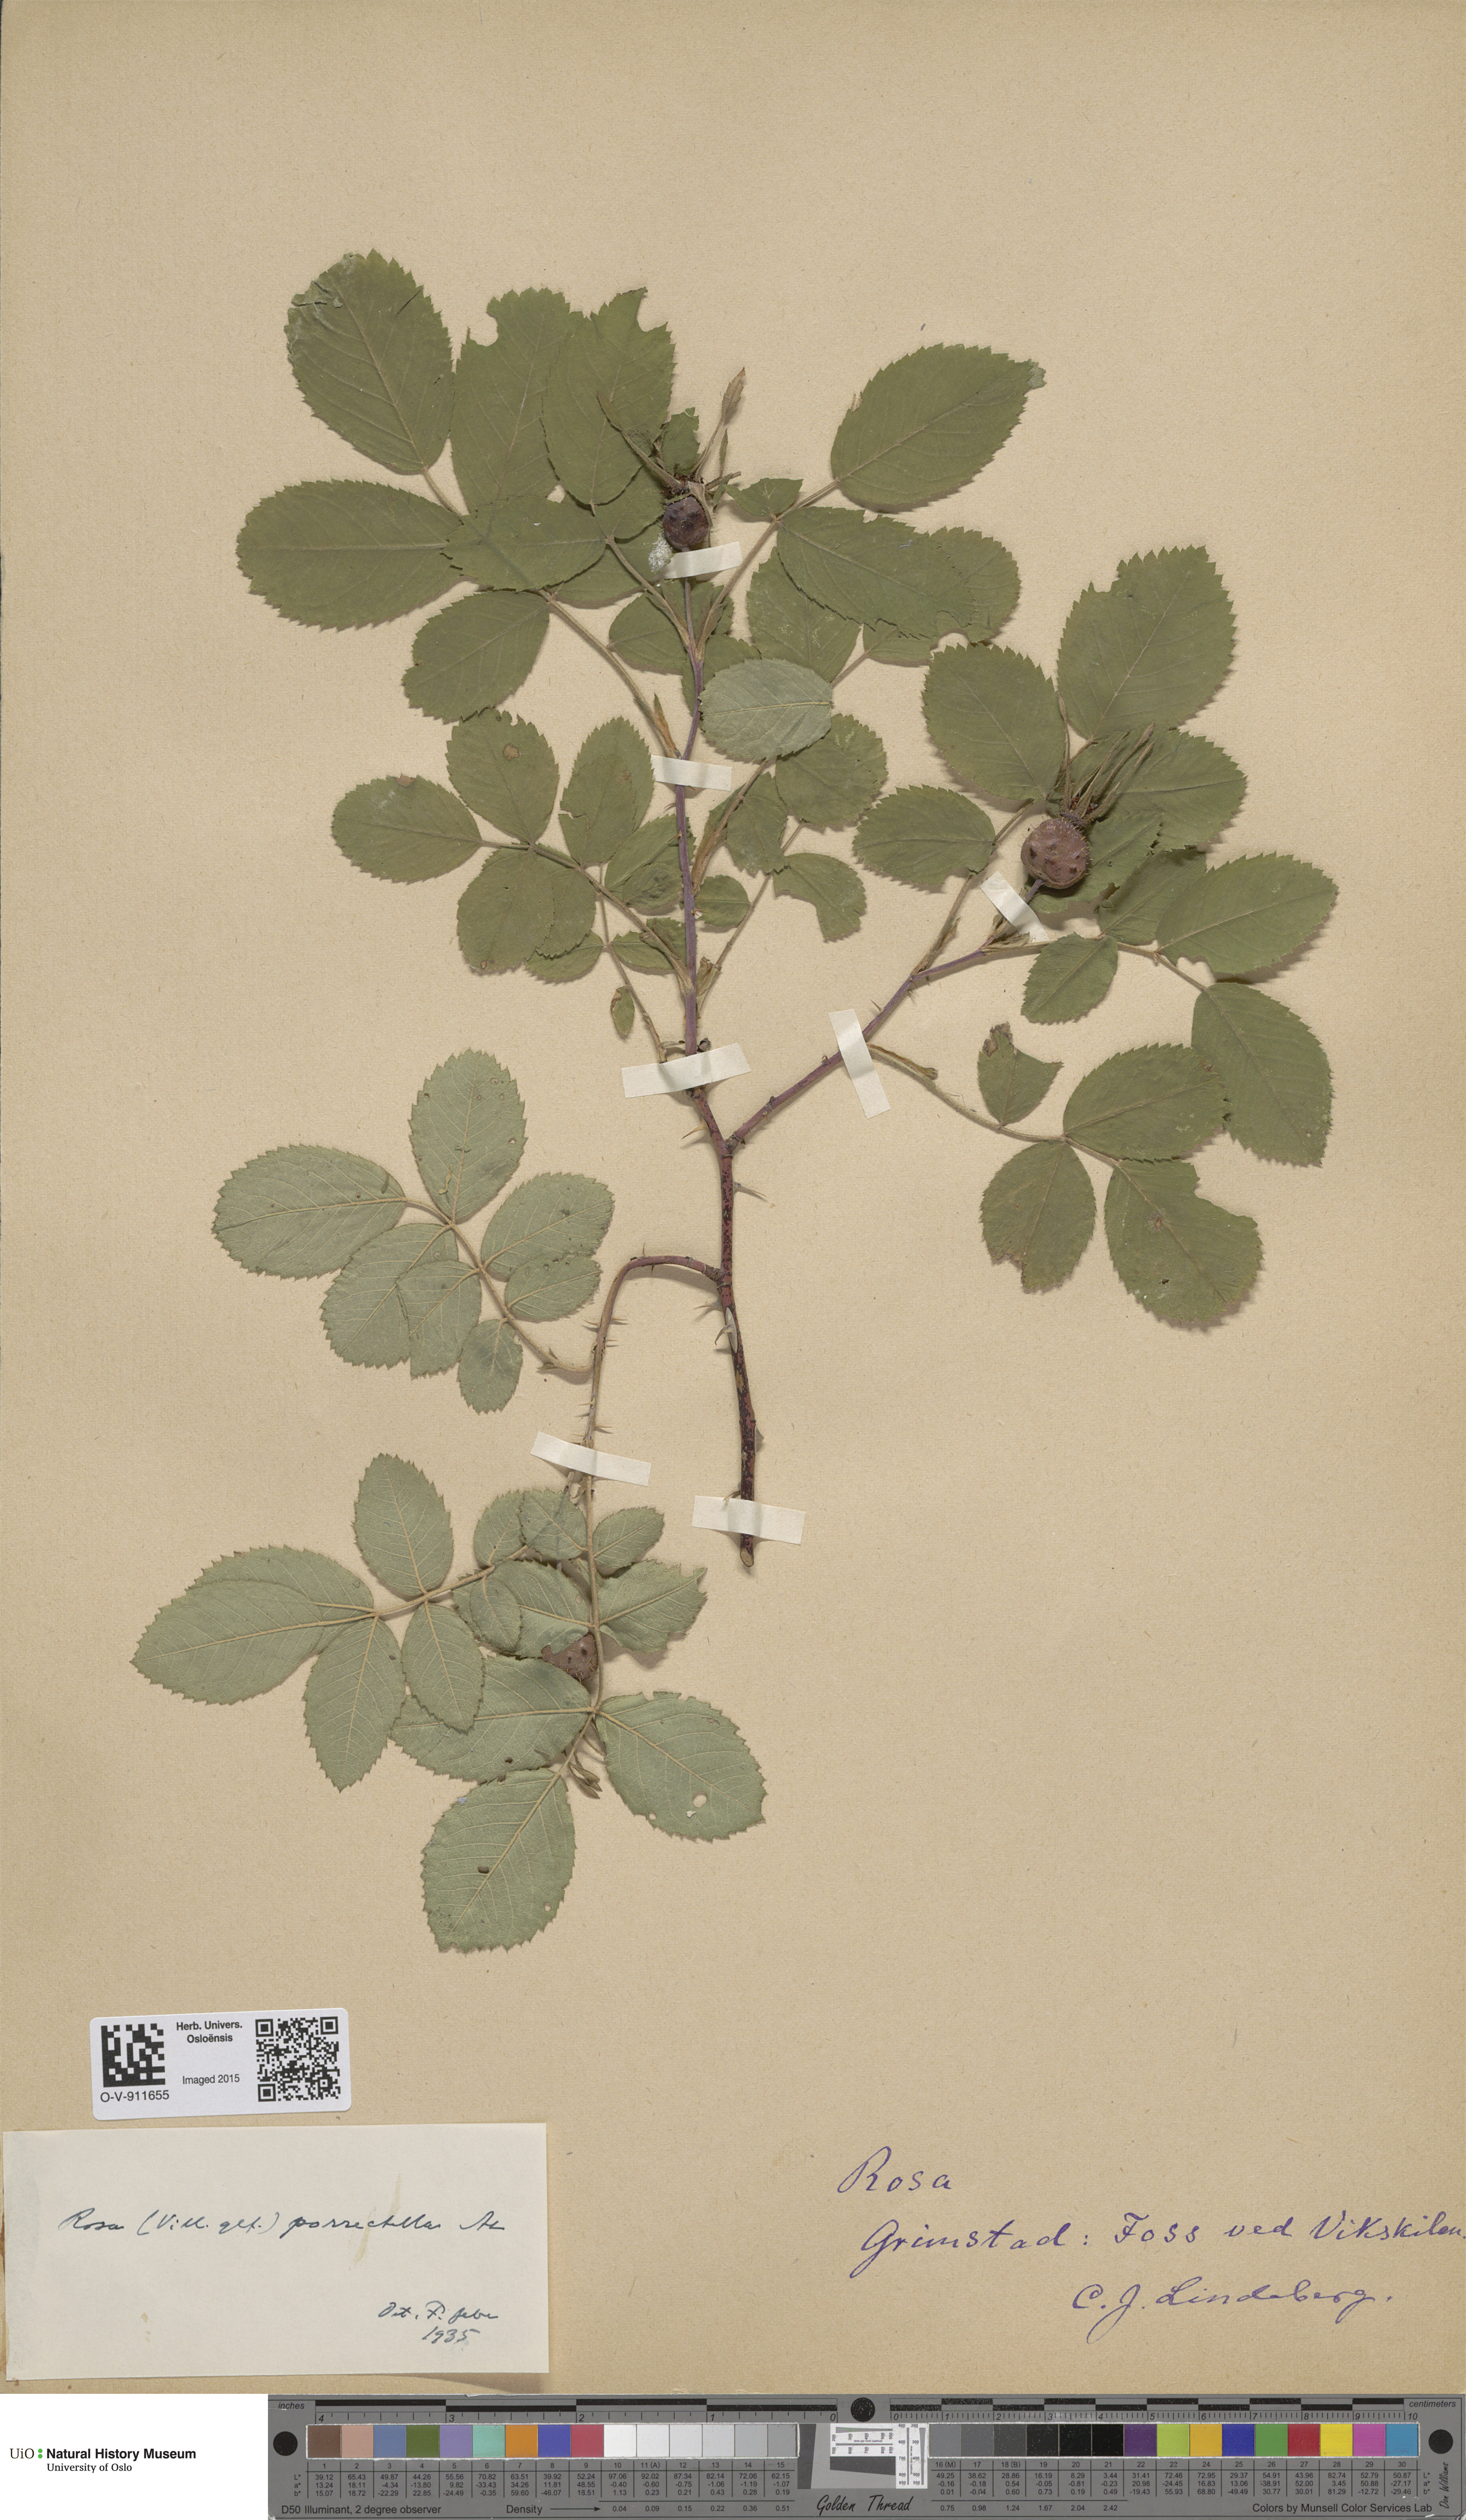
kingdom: Plantae
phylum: Tracheophyta
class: Magnoliopsida
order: Rosales
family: Rosaceae
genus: Rosa
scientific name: Rosa mollis
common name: Rose
